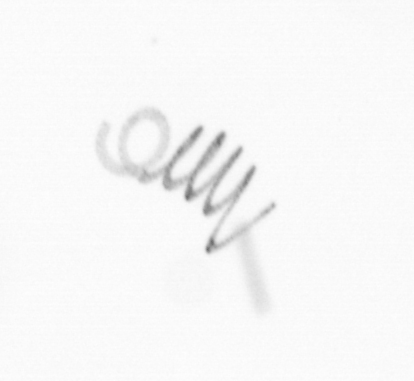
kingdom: Chromista
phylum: Ochrophyta
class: Bacillariophyceae
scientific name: Bacillariophyceae
